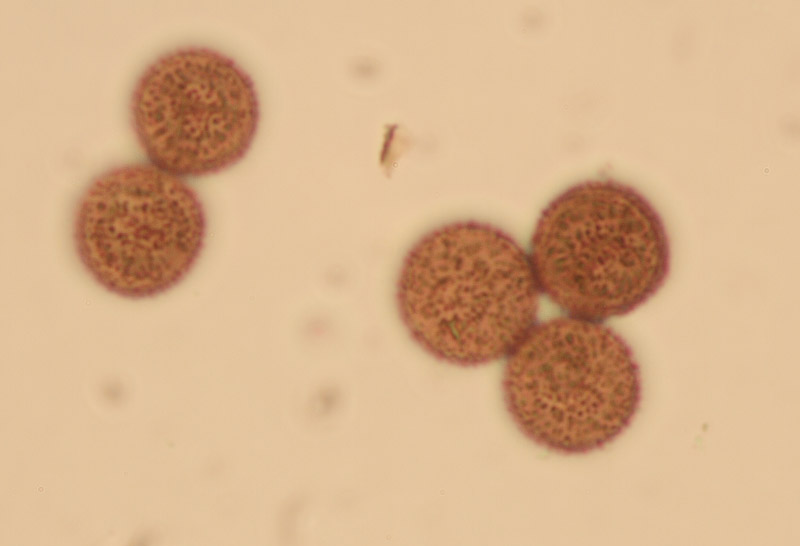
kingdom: Protozoa
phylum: Mycetozoa
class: Myxomycetes
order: Physarales
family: Didymiaceae
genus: Didymium
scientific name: Didymium melanospermum
